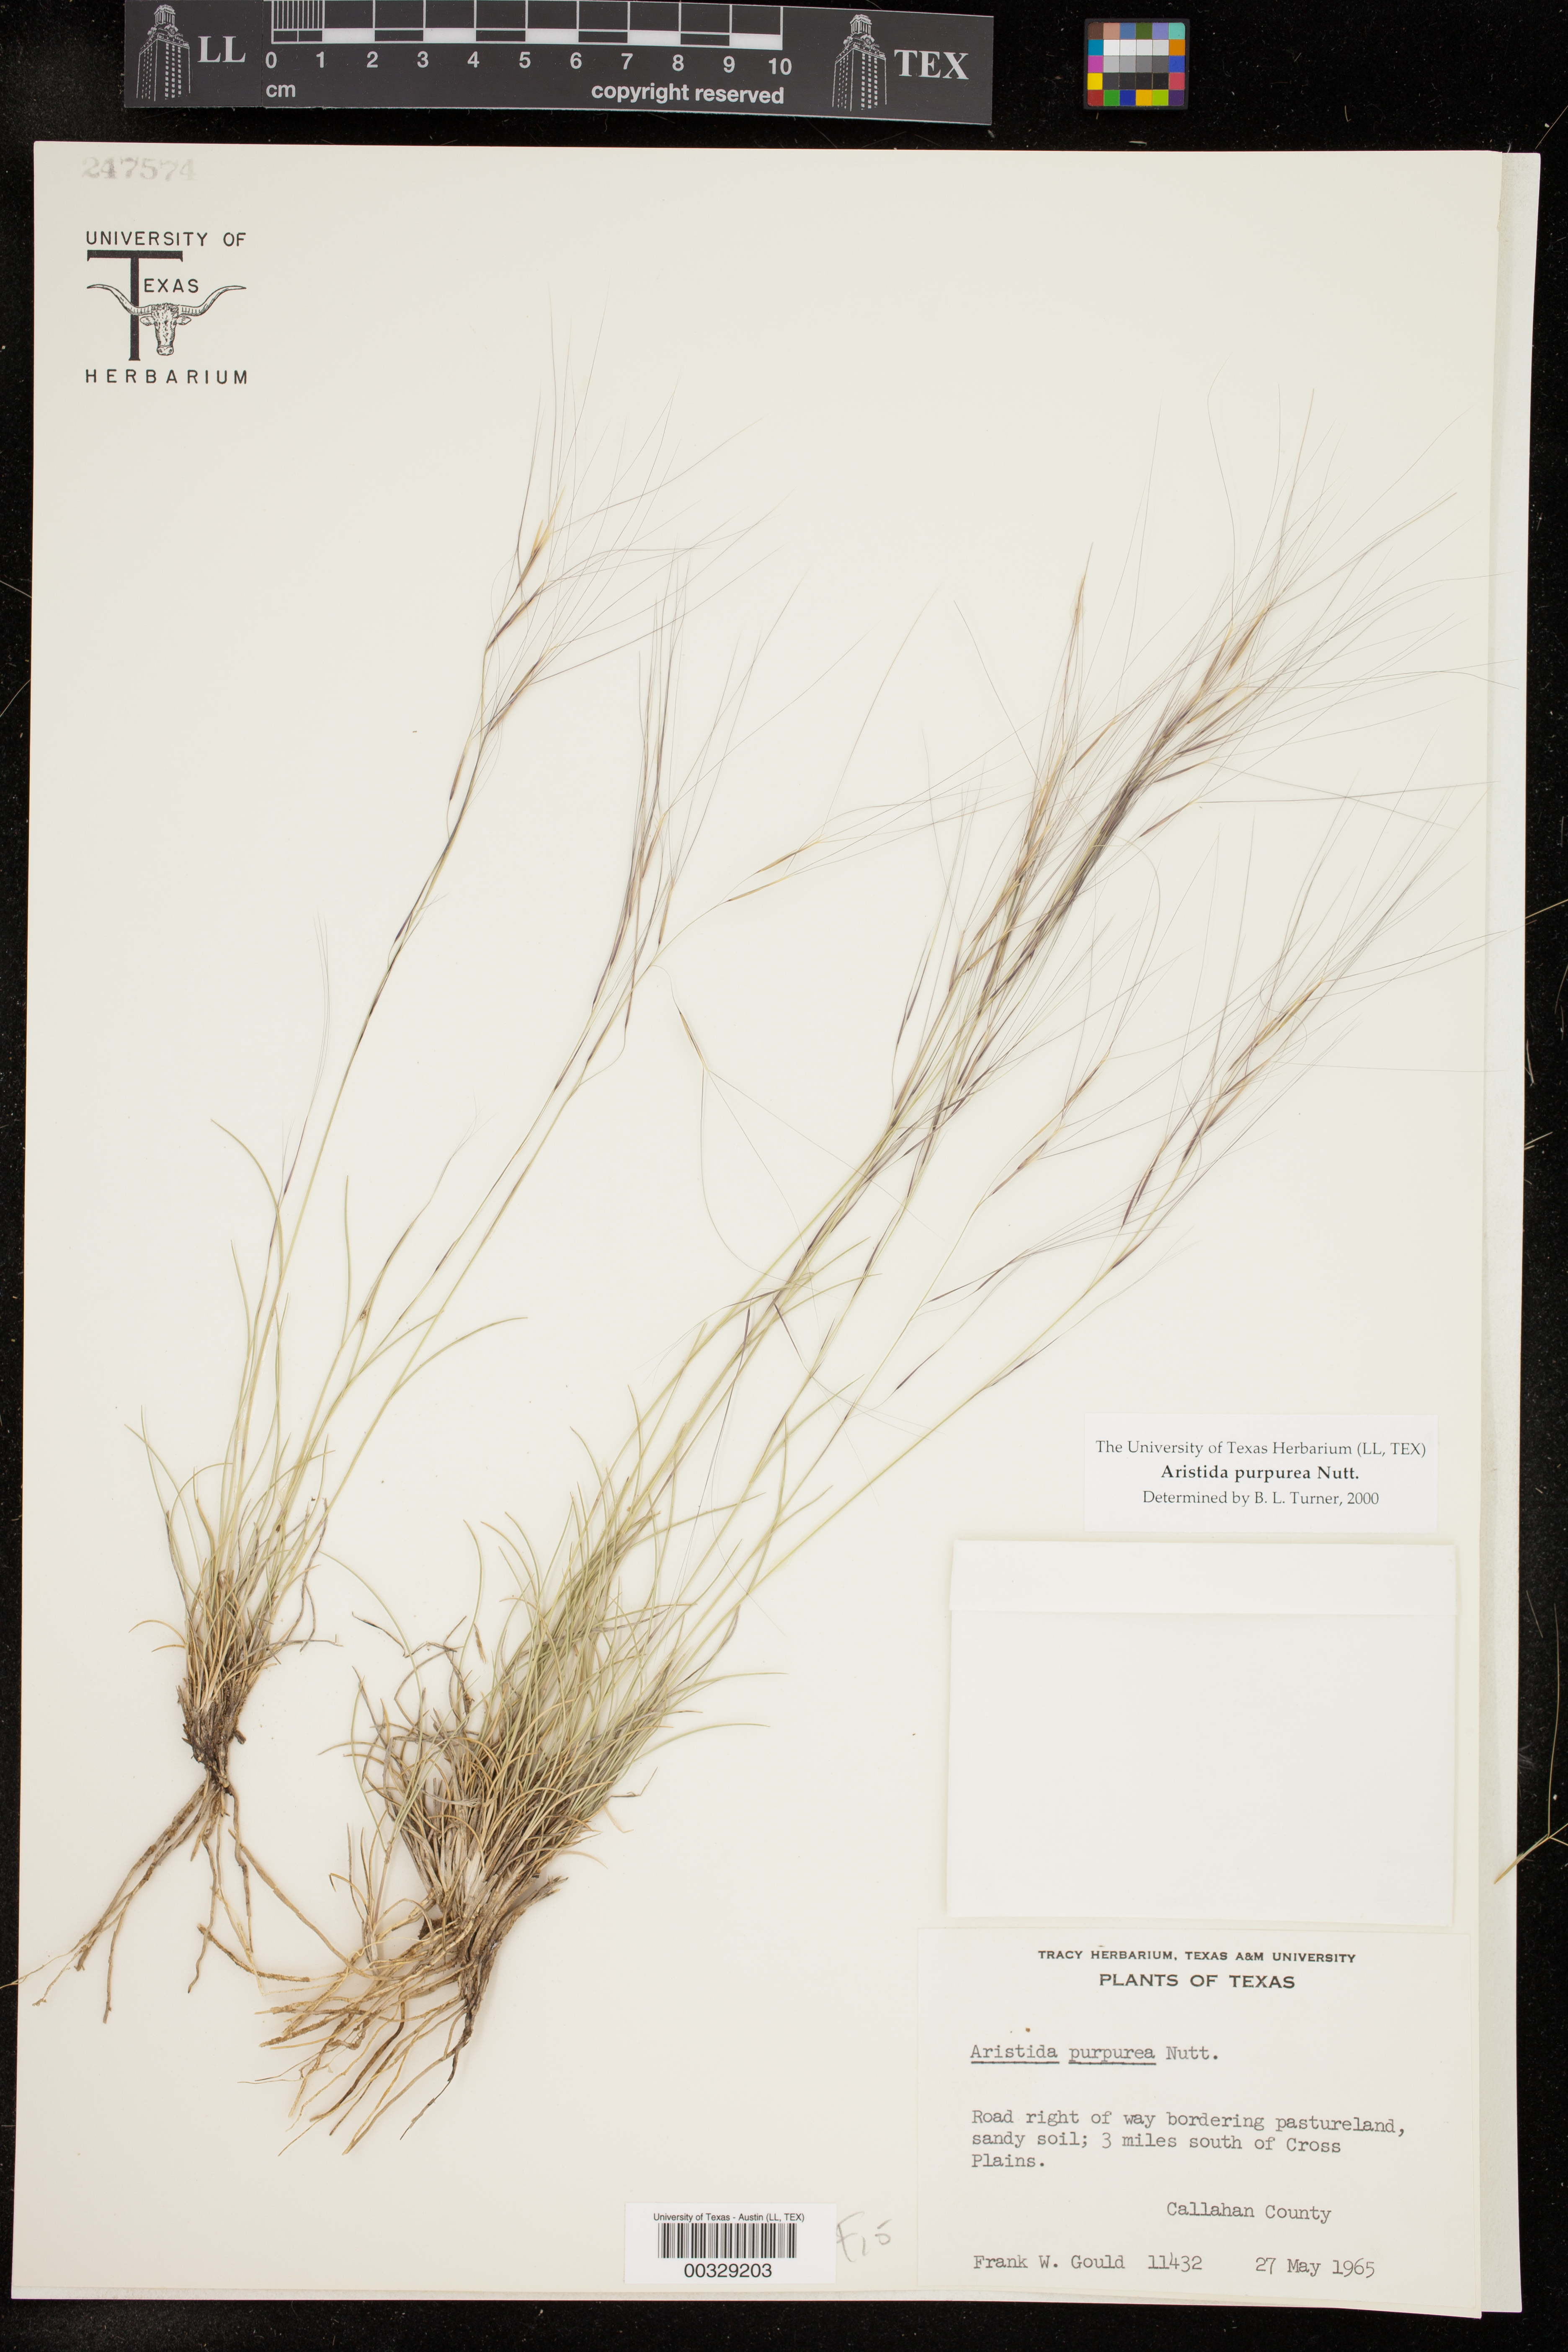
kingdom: Plantae
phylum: Tracheophyta
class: Liliopsida
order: Poales
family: Poaceae
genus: Aristida
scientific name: Aristida purpurea
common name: Purple threeawn
